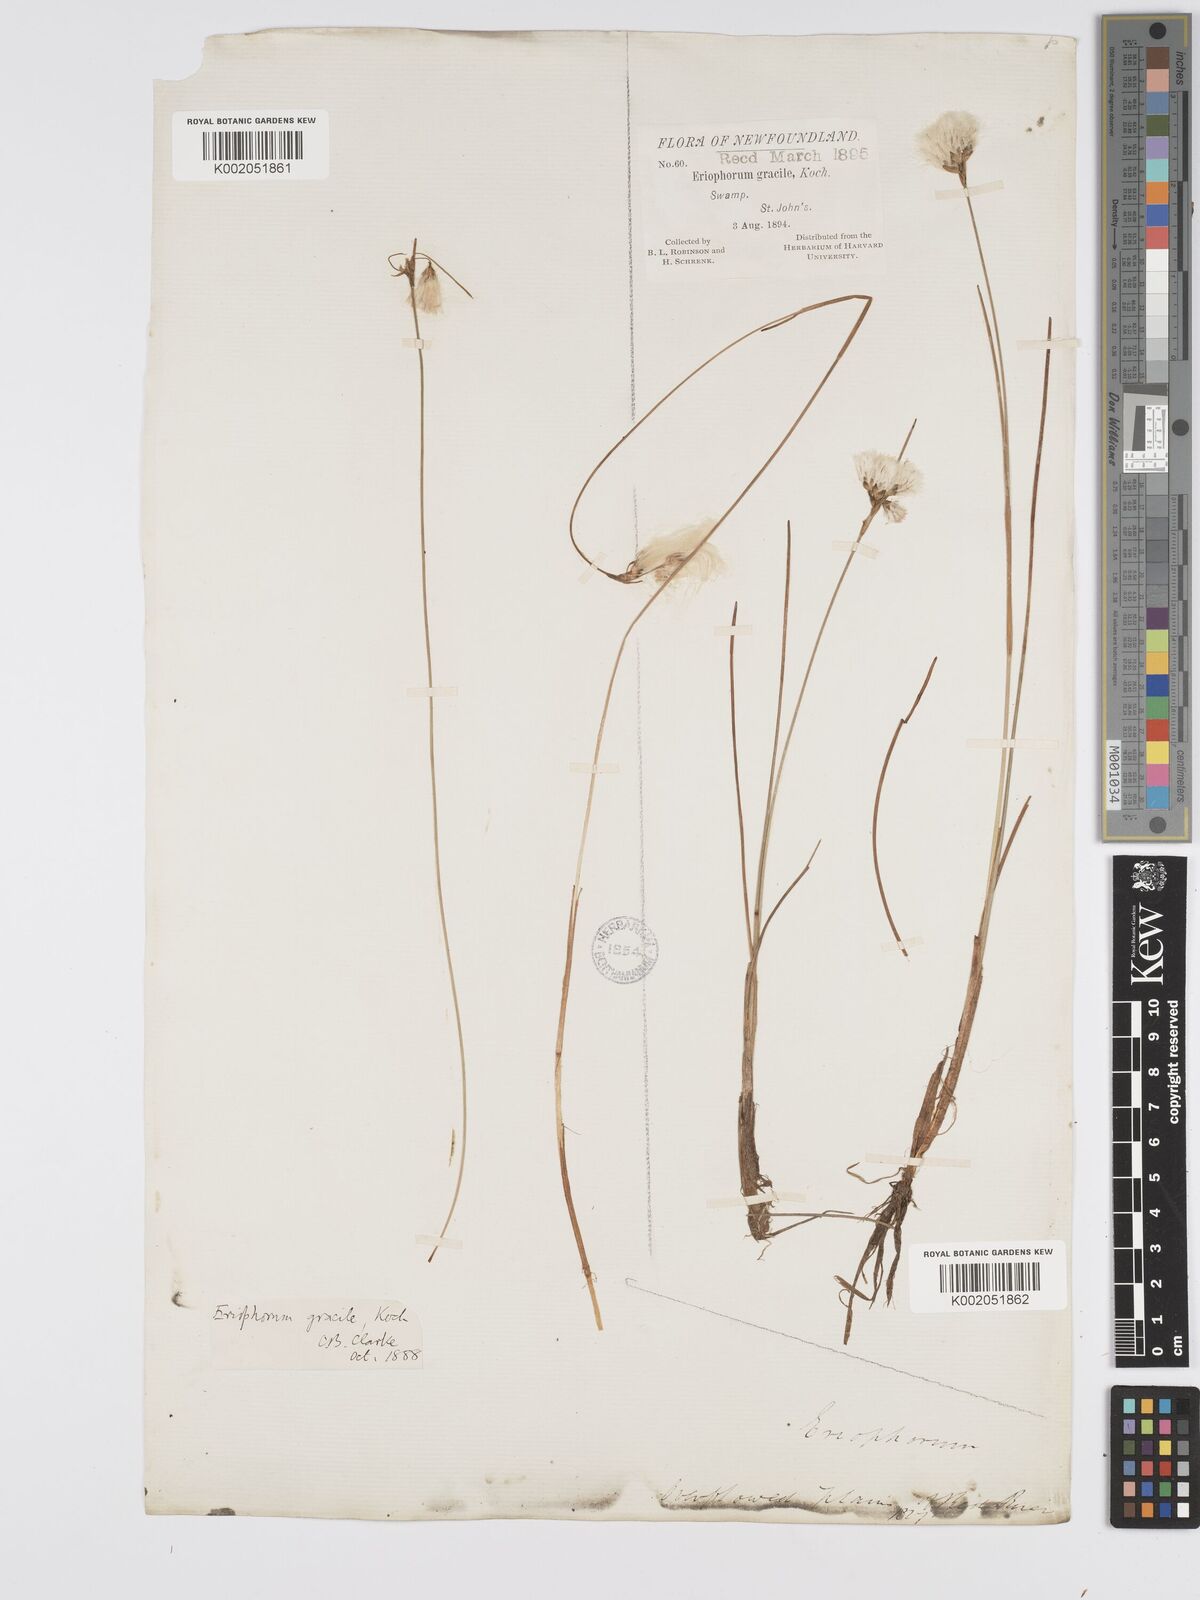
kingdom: Plantae
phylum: Tracheophyta
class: Liliopsida
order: Poales
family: Cyperaceae
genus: Eriophorum
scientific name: Eriophorum gracile
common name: Slender cottongrass
